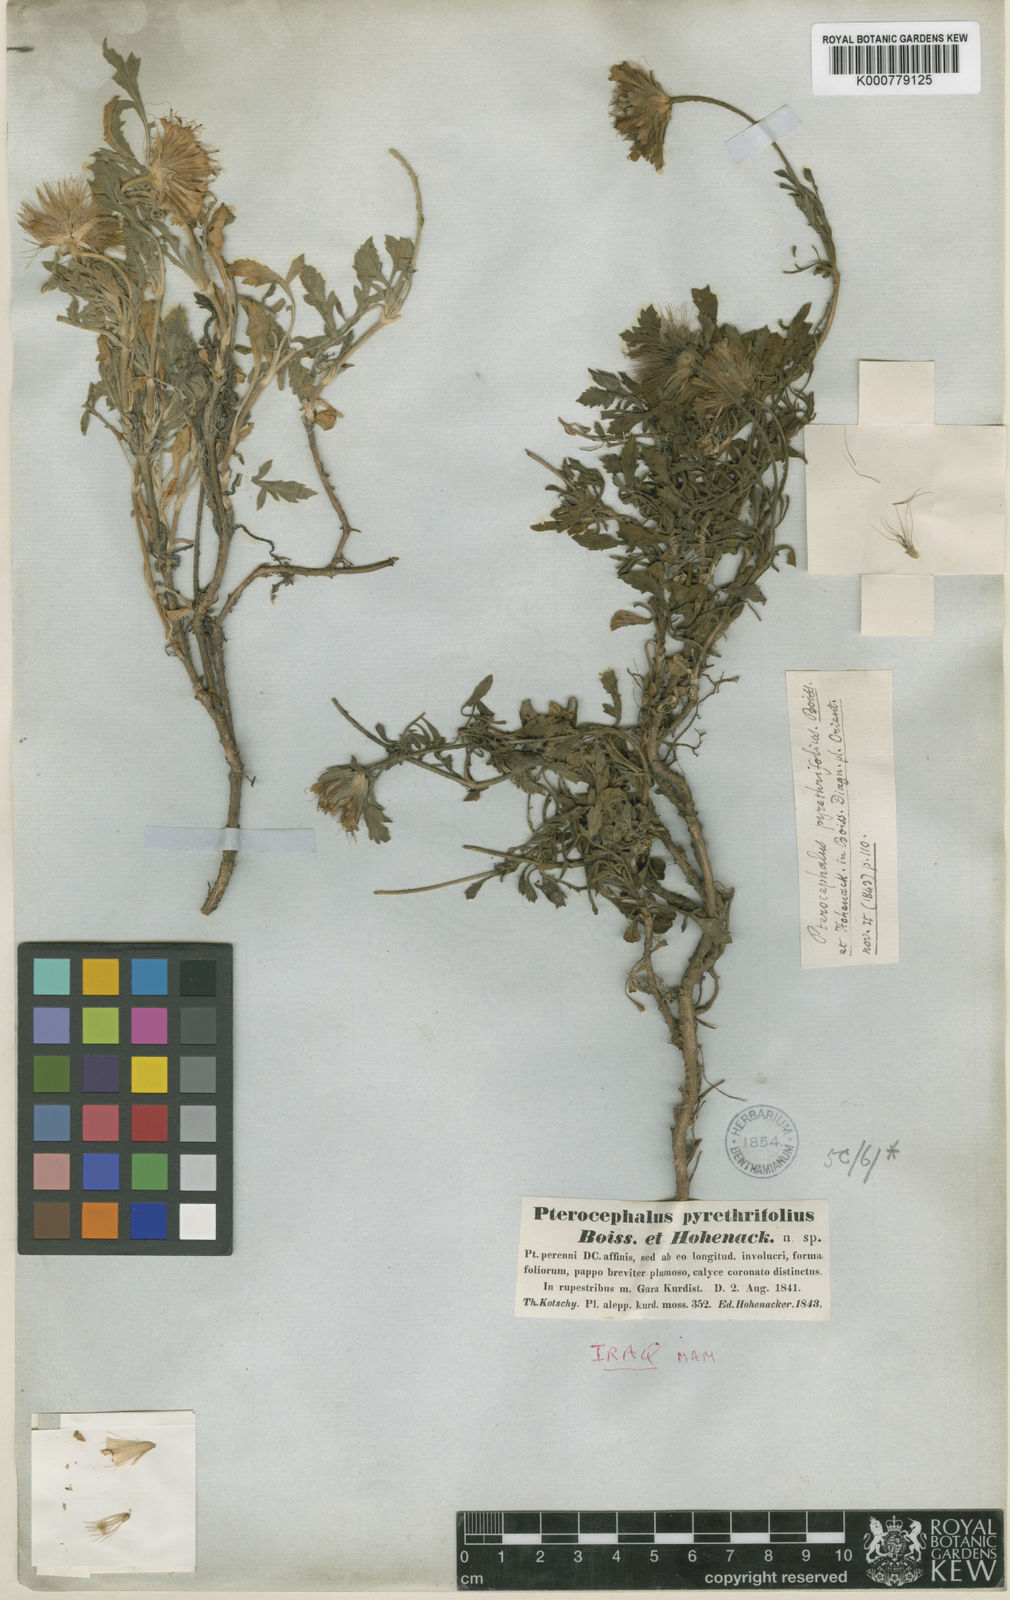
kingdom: Plantae
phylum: Tracheophyta
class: Magnoliopsida
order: Dipsacales
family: Caprifoliaceae
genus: Pterocephalus
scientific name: Pterocephalus pyrethrifolius
